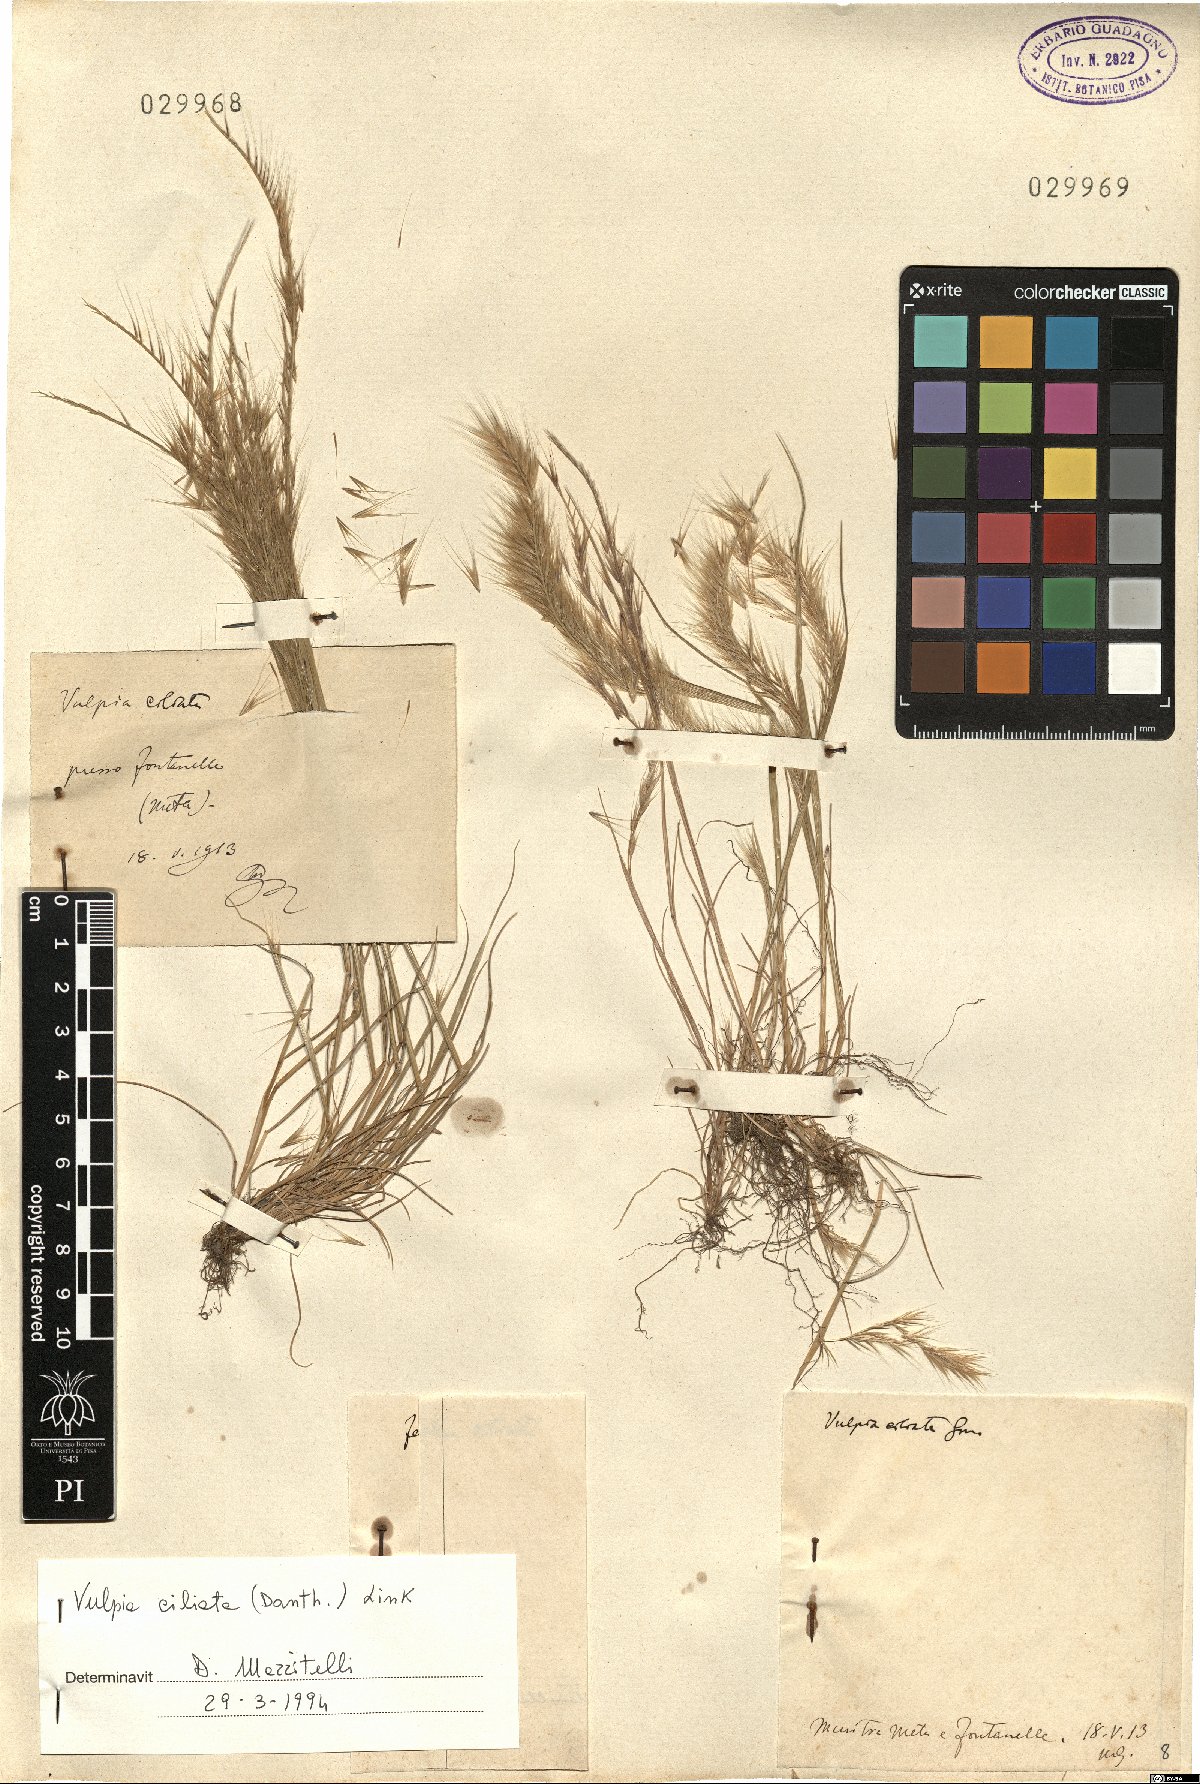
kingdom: Plantae
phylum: Tracheophyta
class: Liliopsida
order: Poales
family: Poaceae
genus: Festuca
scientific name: Festuca ambigua
